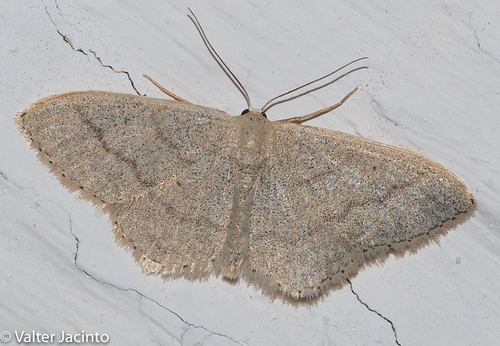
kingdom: Animalia
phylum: Arthropoda
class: Insecta
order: Lepidoptera
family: Geometridae
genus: Idaea
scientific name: Idaea lusohispanica
